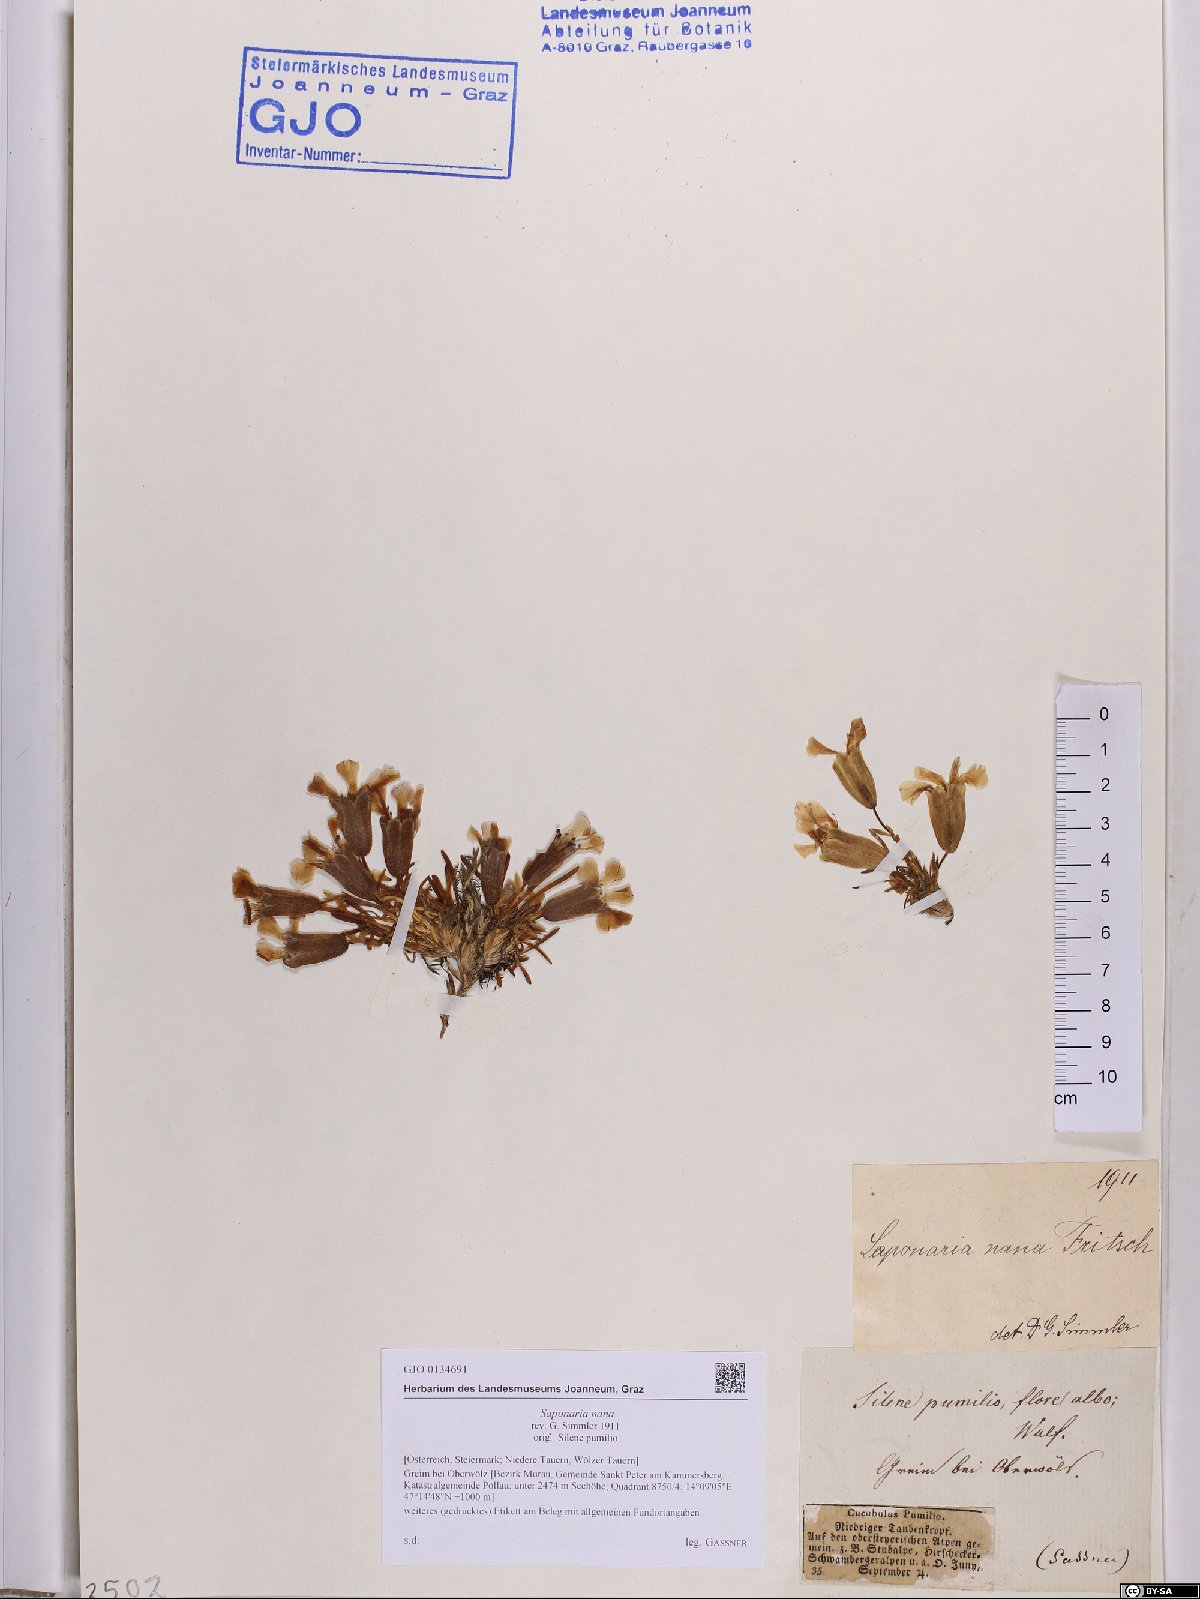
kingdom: Plantae
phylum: Tracheophyta
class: Magnoliopsida
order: Caryophyllales
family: Caryophyllaceae
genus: Saponaria
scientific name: Saponaria pumila
